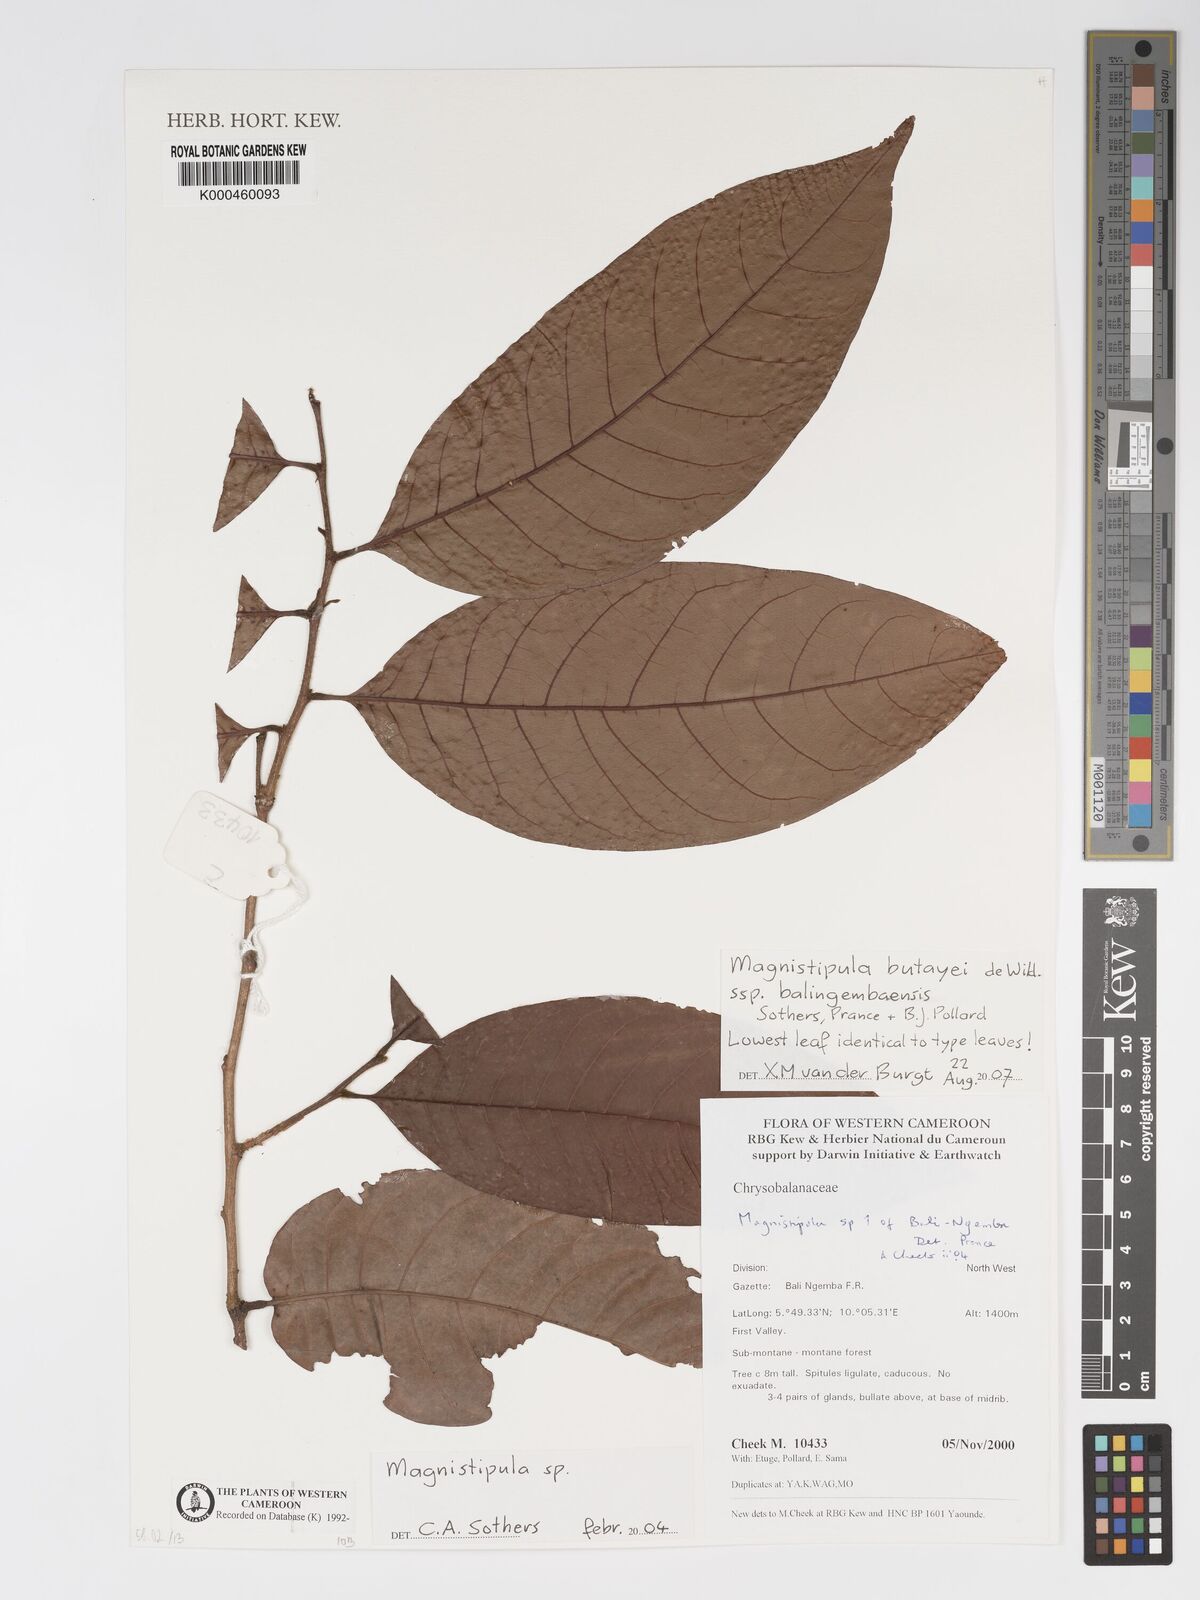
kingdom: Plantae
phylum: Tracheophyta
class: Magnoliopsida
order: Malpighiales
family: Chrysobalanaceae
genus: Magnistipula
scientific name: Magnistipula butayei
